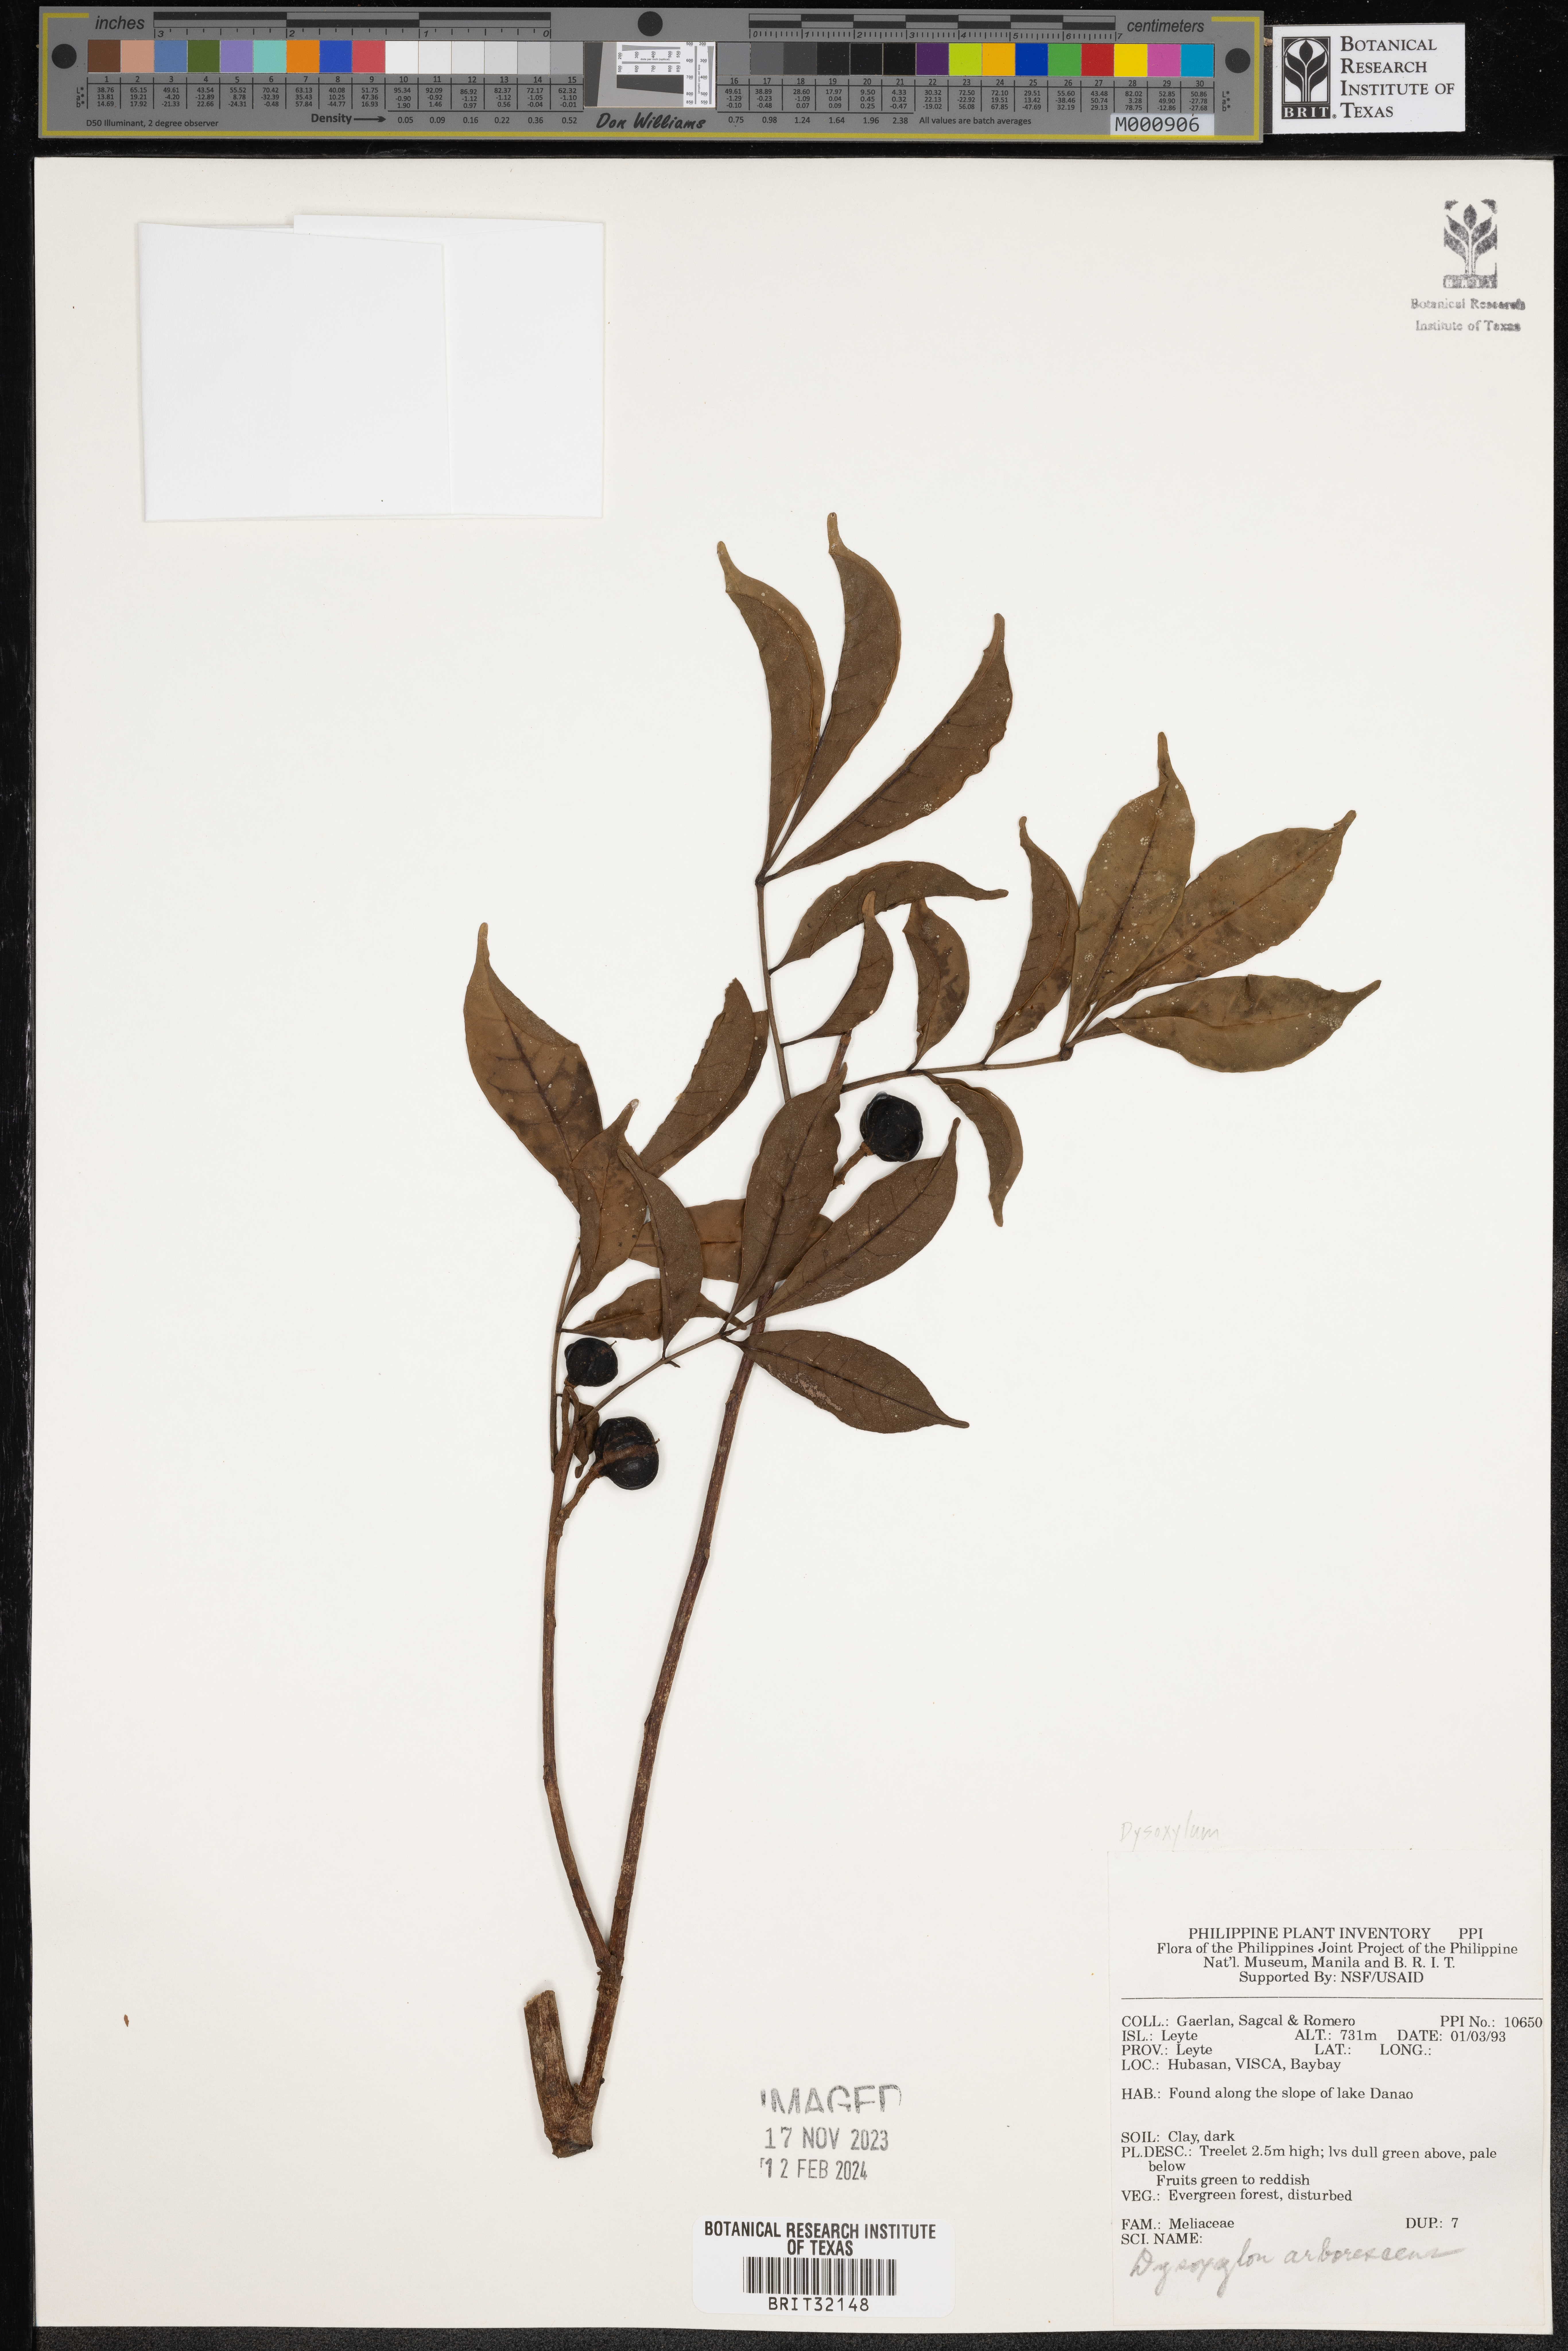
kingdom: Plantae
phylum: Tracheophyta
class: Magnoliopsida
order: Sapindales
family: Meliaceae
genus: Goniocheton
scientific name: Goniocheton arborescens
